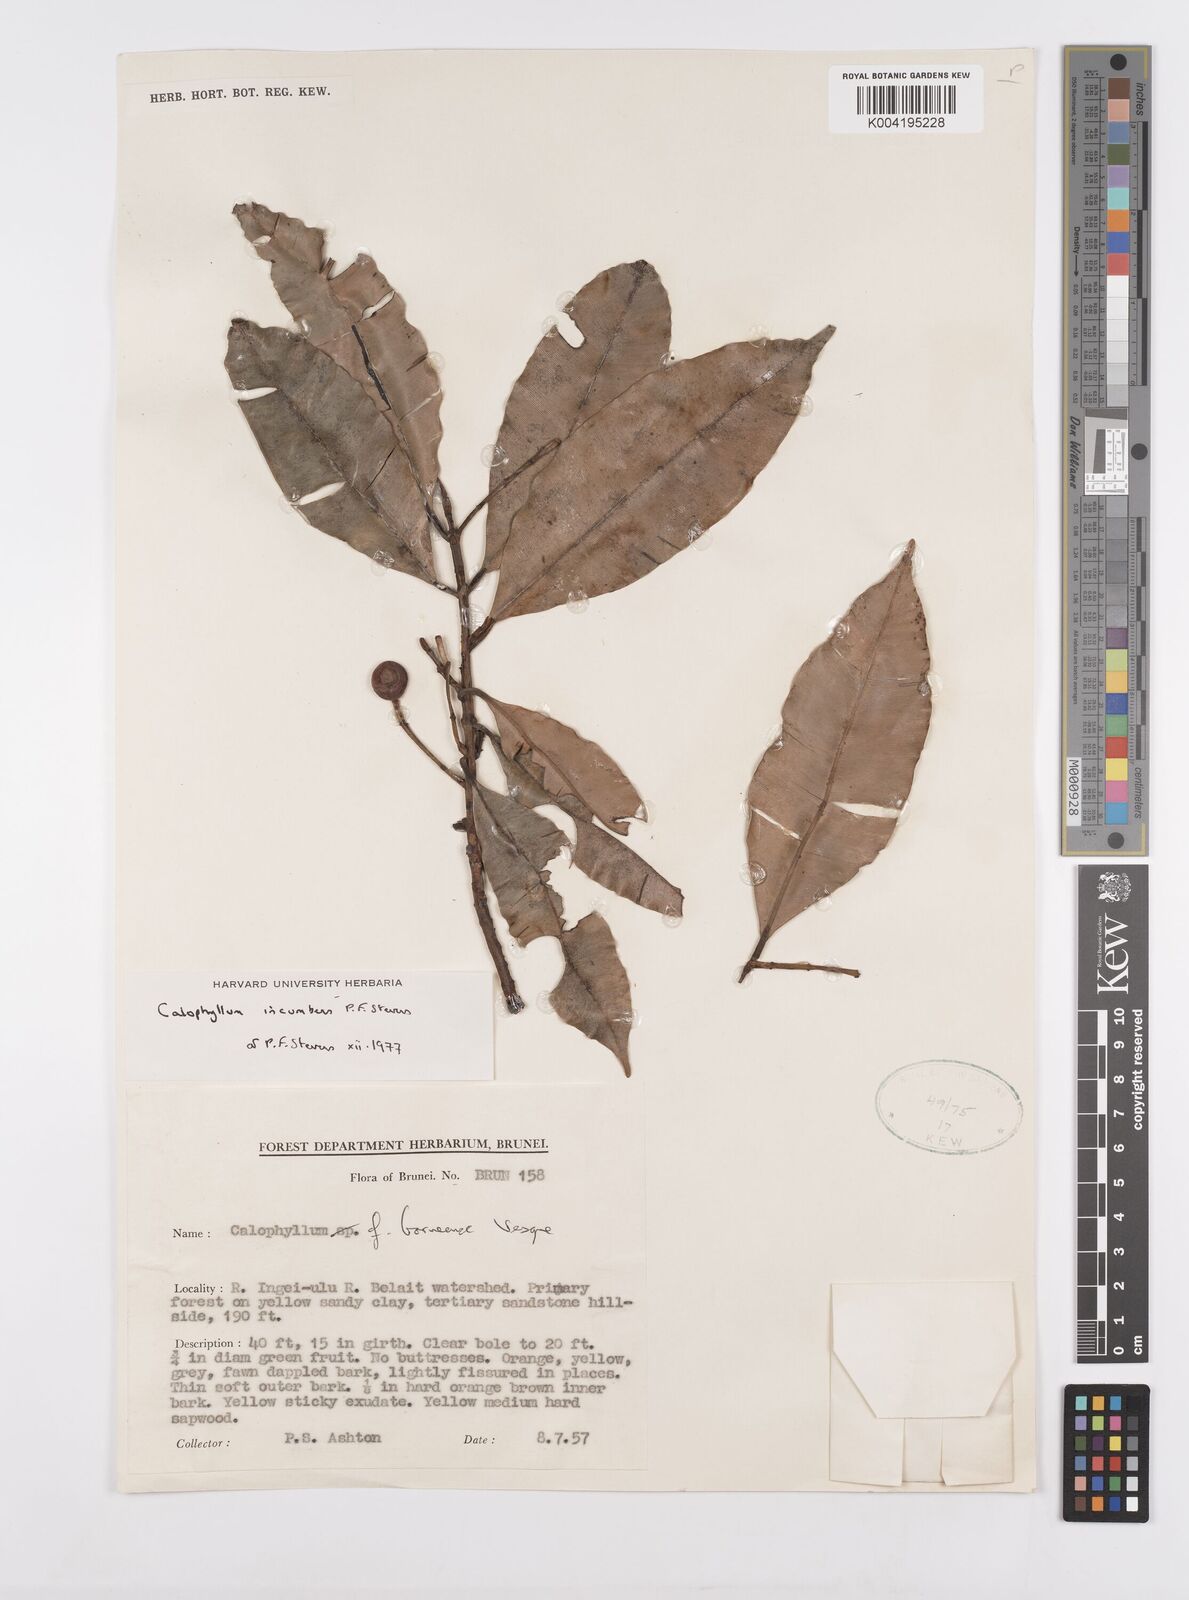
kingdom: Plantae
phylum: Tracheophyta
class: Magnoliopsida
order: Malpighiales
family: Calophyllaceae
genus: Calophyllum
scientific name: Calophyllum incumbens
